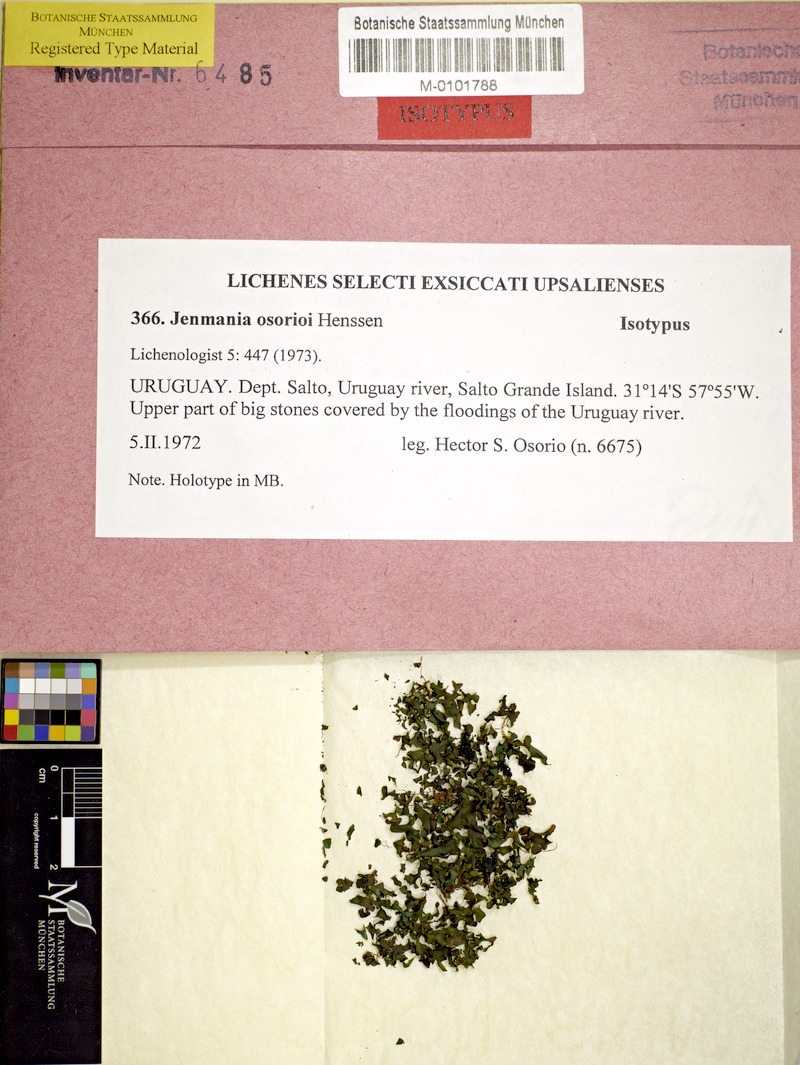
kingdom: Fungi
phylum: Ascomycota
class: Lichinomycetes
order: Lichinales
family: Lichinaceae
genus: Jenmania
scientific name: Jenmania osorioi
